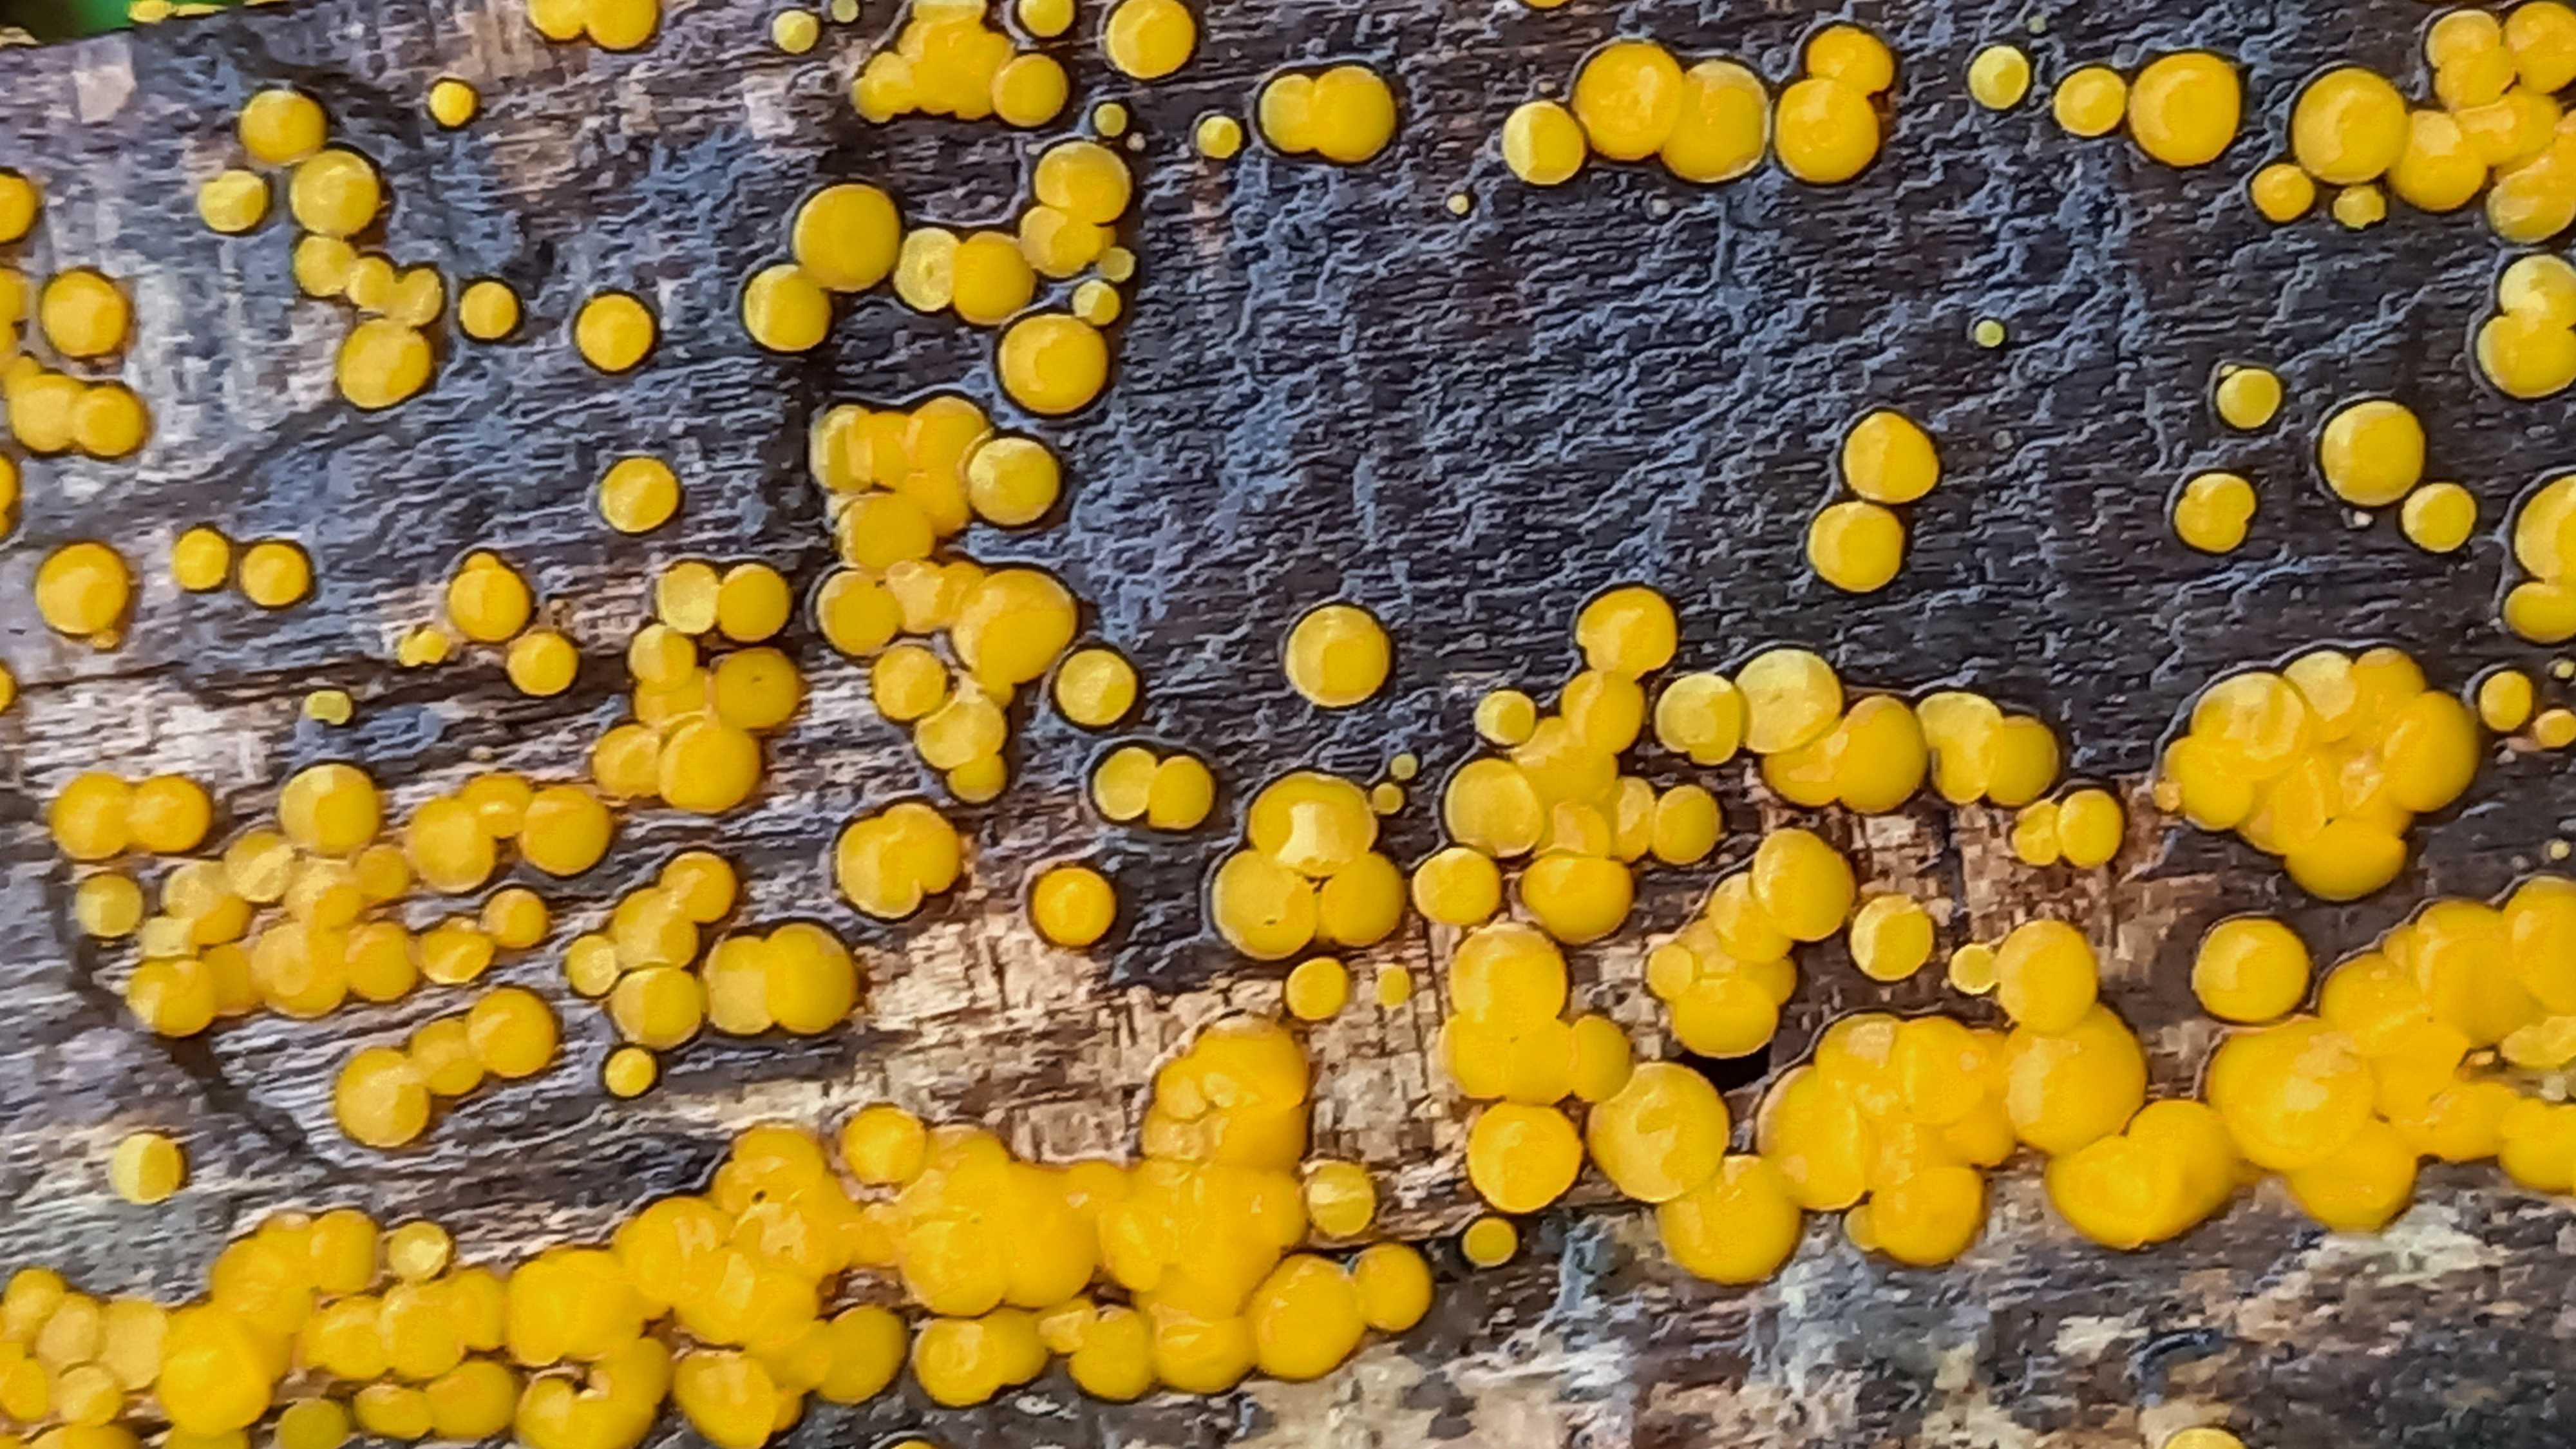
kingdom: Fungi
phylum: Ascomycota
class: Leotiomycetes
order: Helotiales
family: Pezizellaceae
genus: Calycina
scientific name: Calycina citrina
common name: almindelig gulskive
